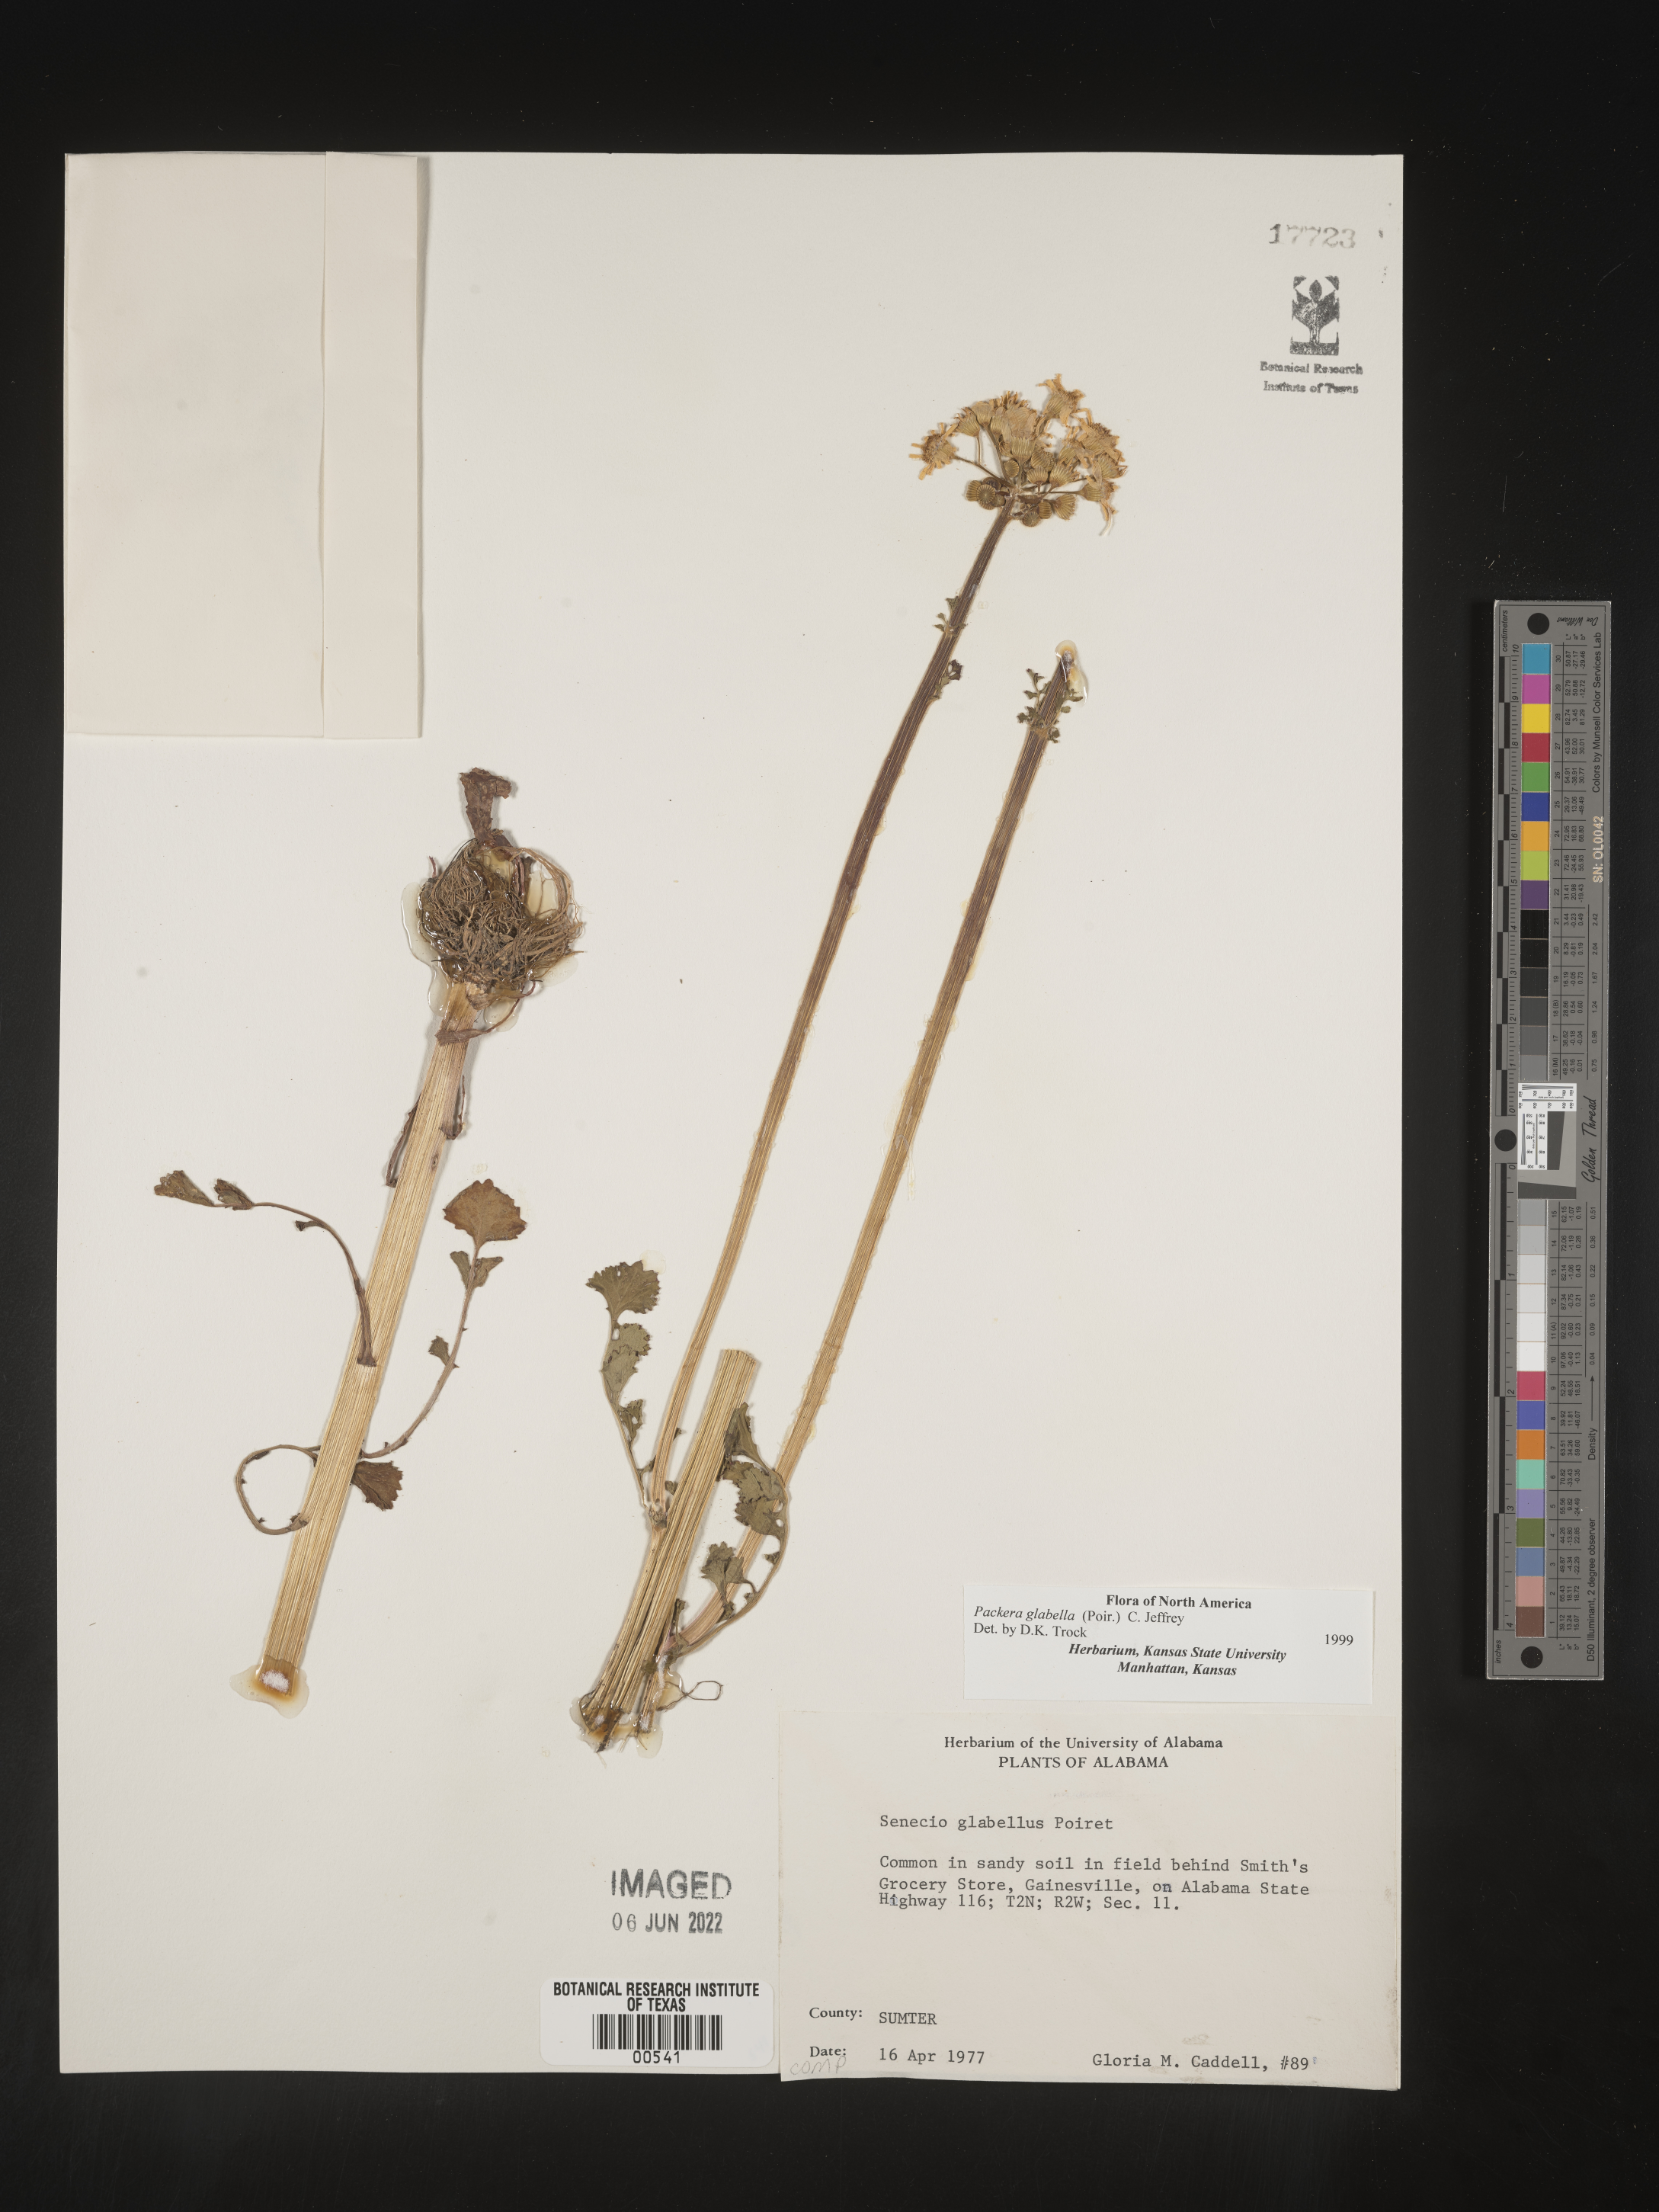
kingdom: Plantae
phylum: Tracheophyta
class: Magnoliopsida
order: Asterales
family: Asteraceae
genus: Packera
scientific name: Packera glabella
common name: Butterweed
